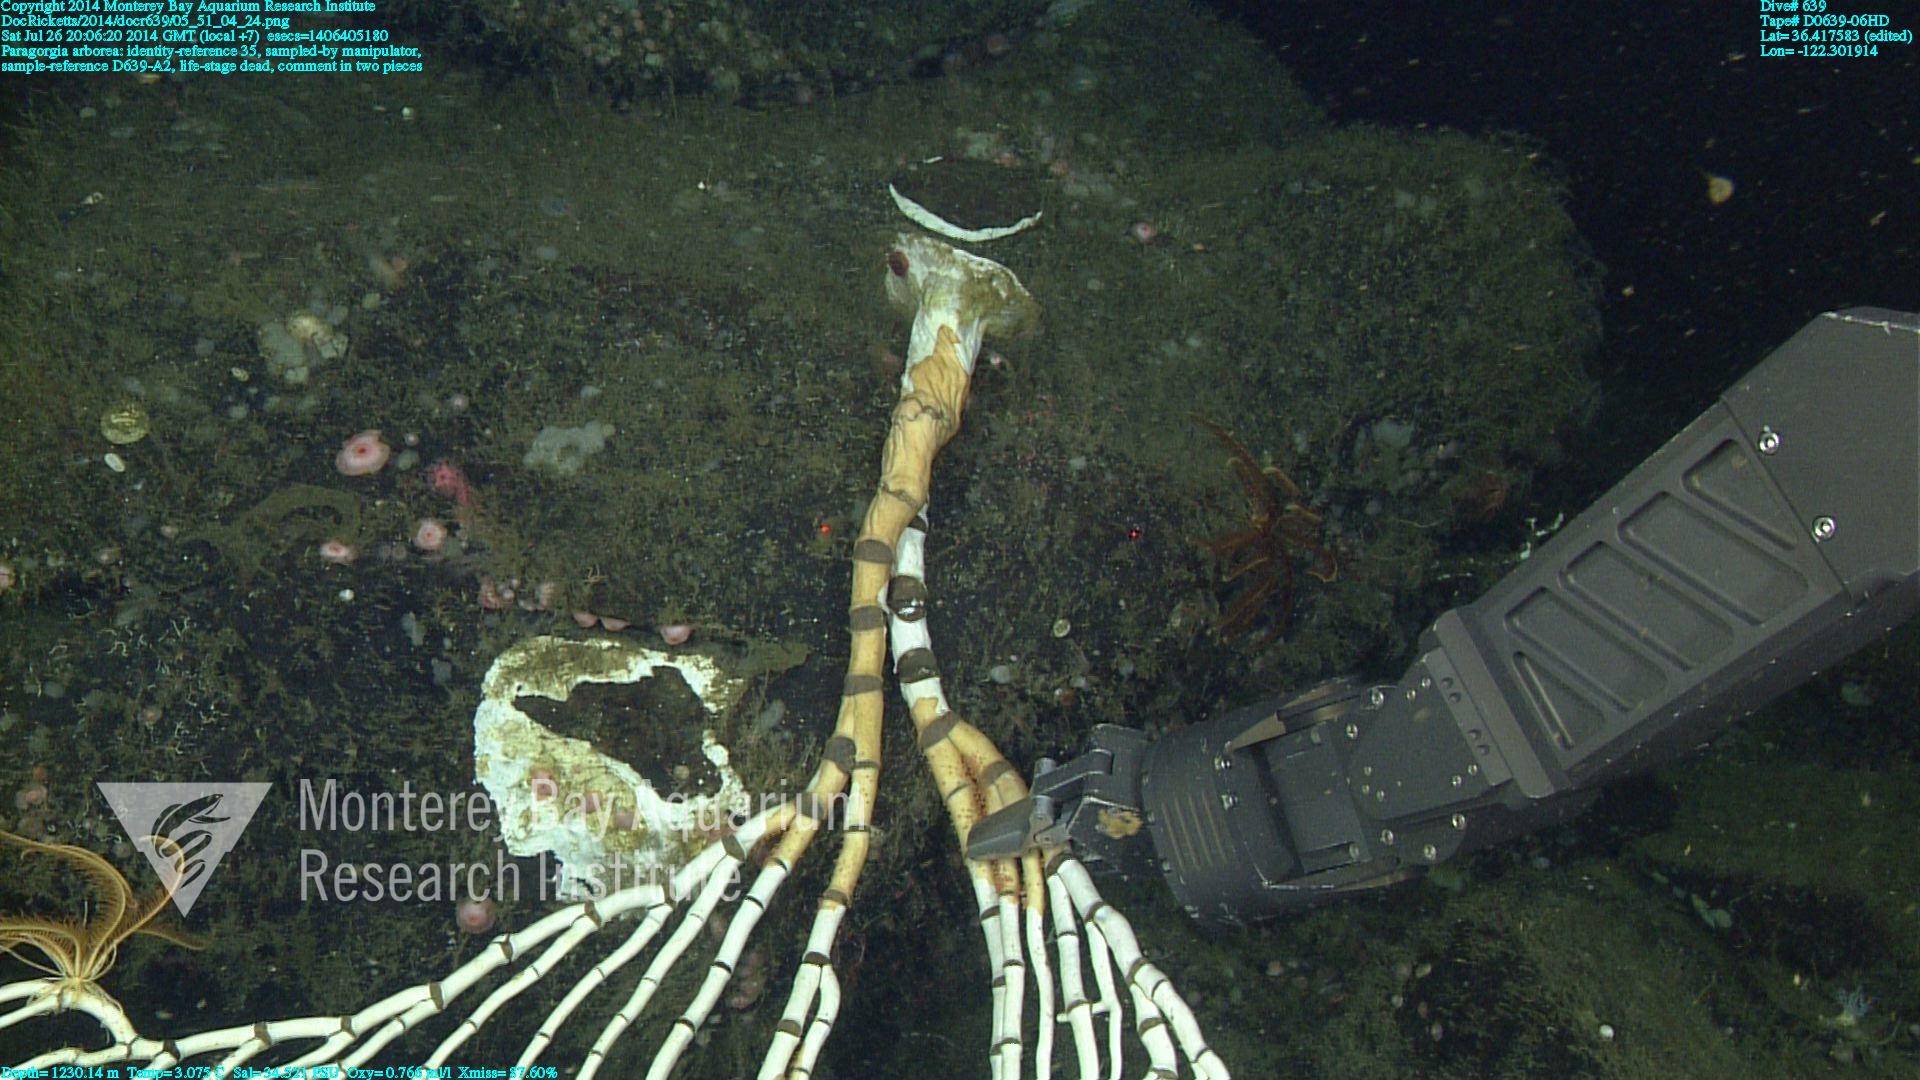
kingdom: Animalia
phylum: Cnidaria
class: Anthozoa
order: Scleralcyonacea
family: Coralliidae
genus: Paragorgia
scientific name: Paragorgia arborea
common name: Bubble gum coral
